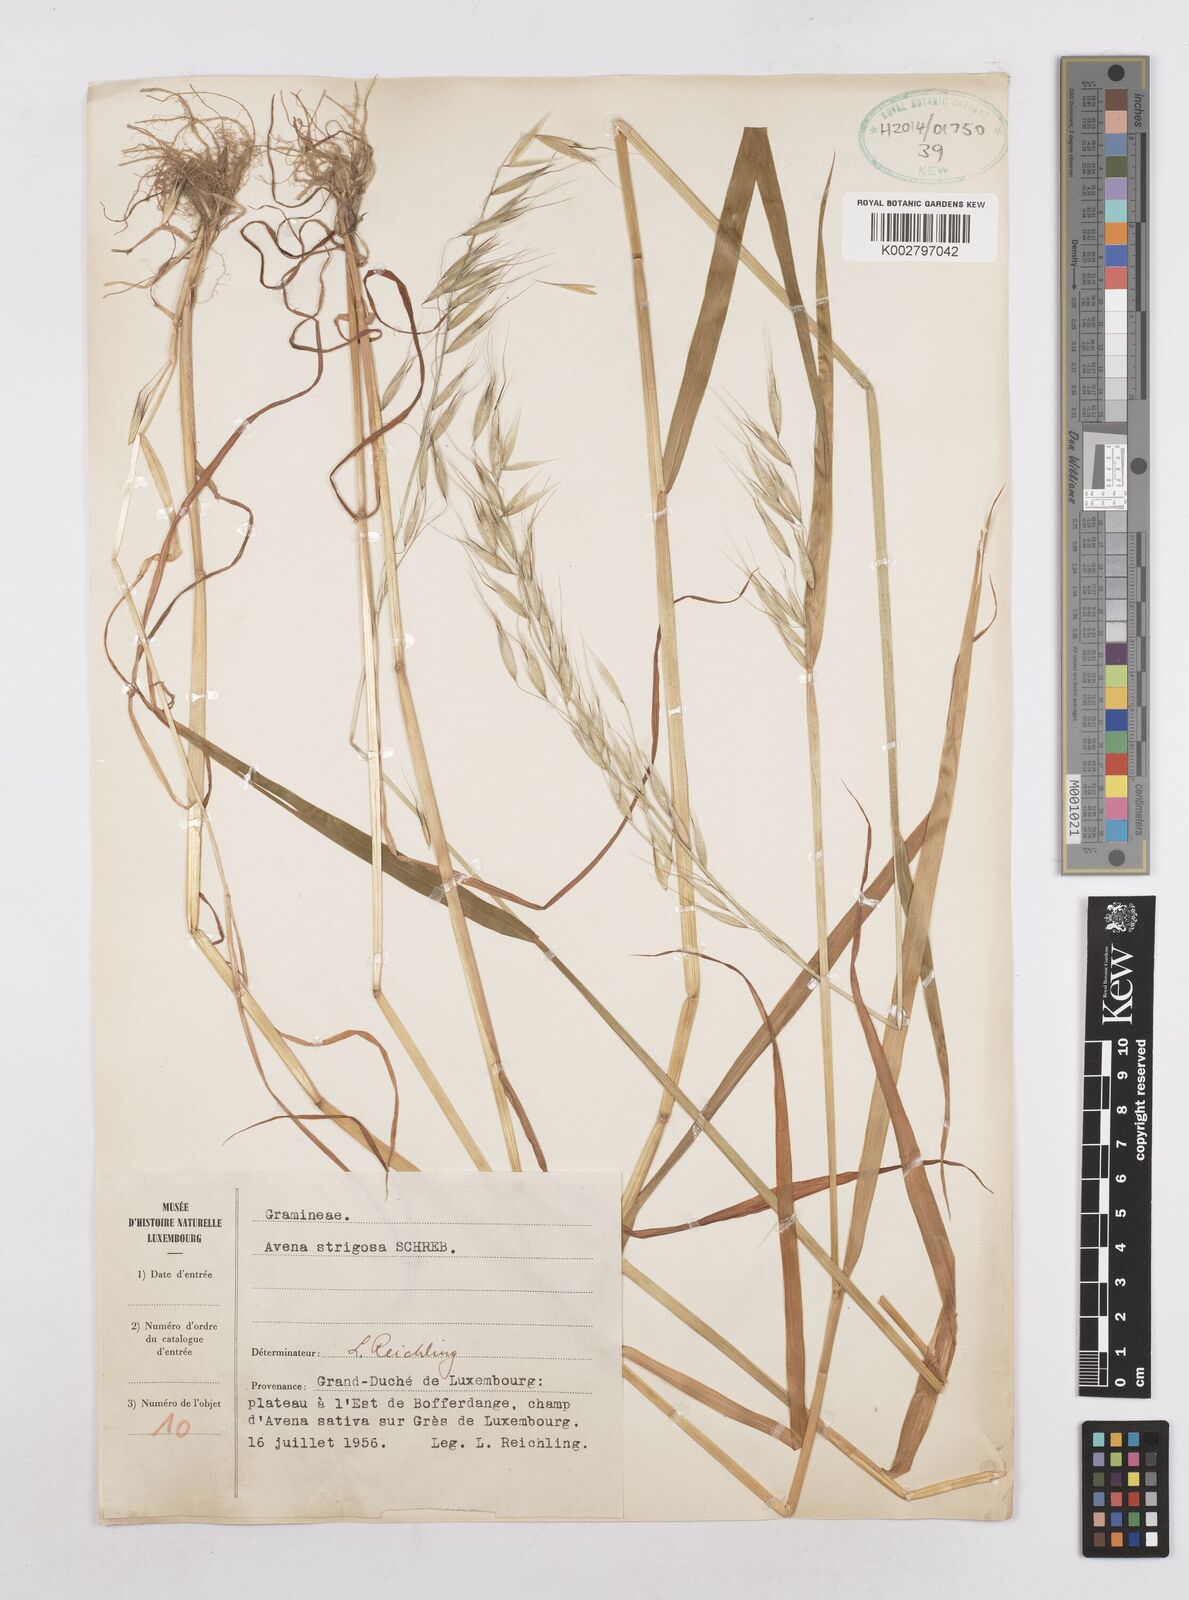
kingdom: Plantae
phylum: Tracheophyta
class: Liliopsida
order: Poales
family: Poaceae
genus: Avena
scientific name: Avena strigosa
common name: Bristle oat
